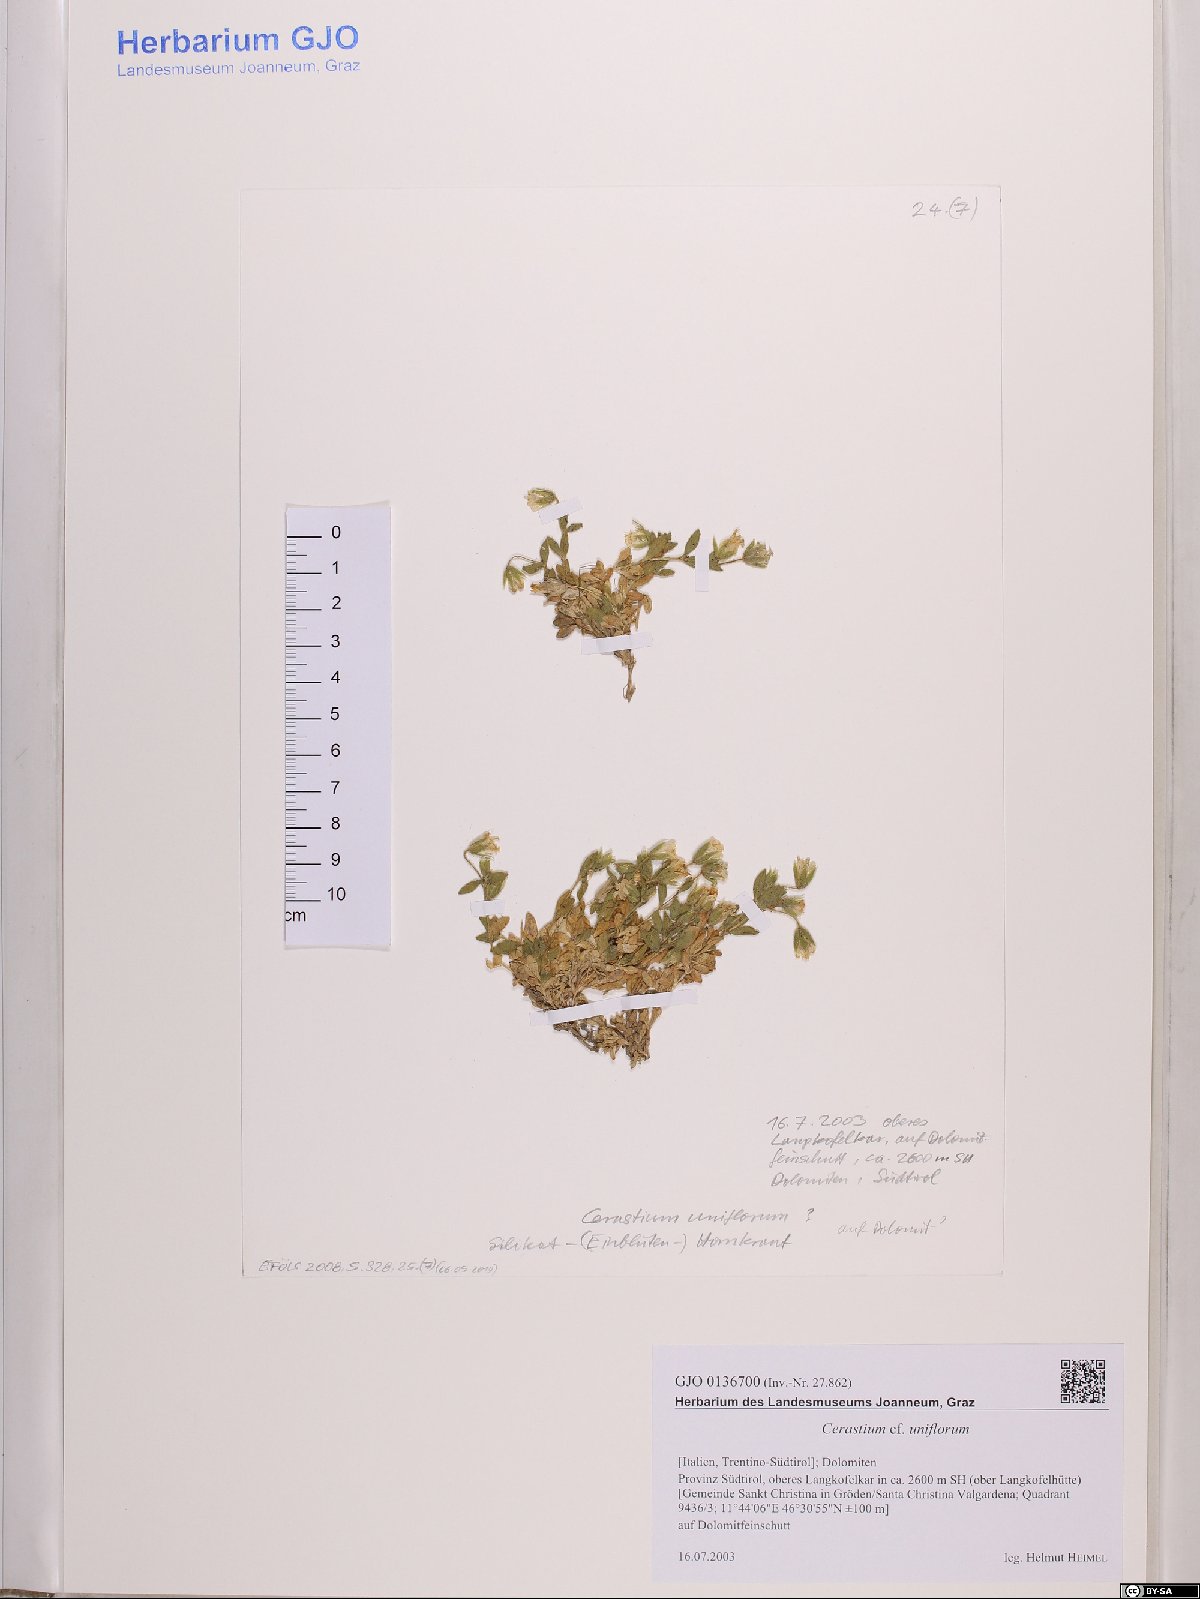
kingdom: Plantae
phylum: Tracheophyta
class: Magnoliopsida
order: Caryophyllales
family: Caryophyllaceae
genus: Cerastium
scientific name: Cerastium uniflorum
